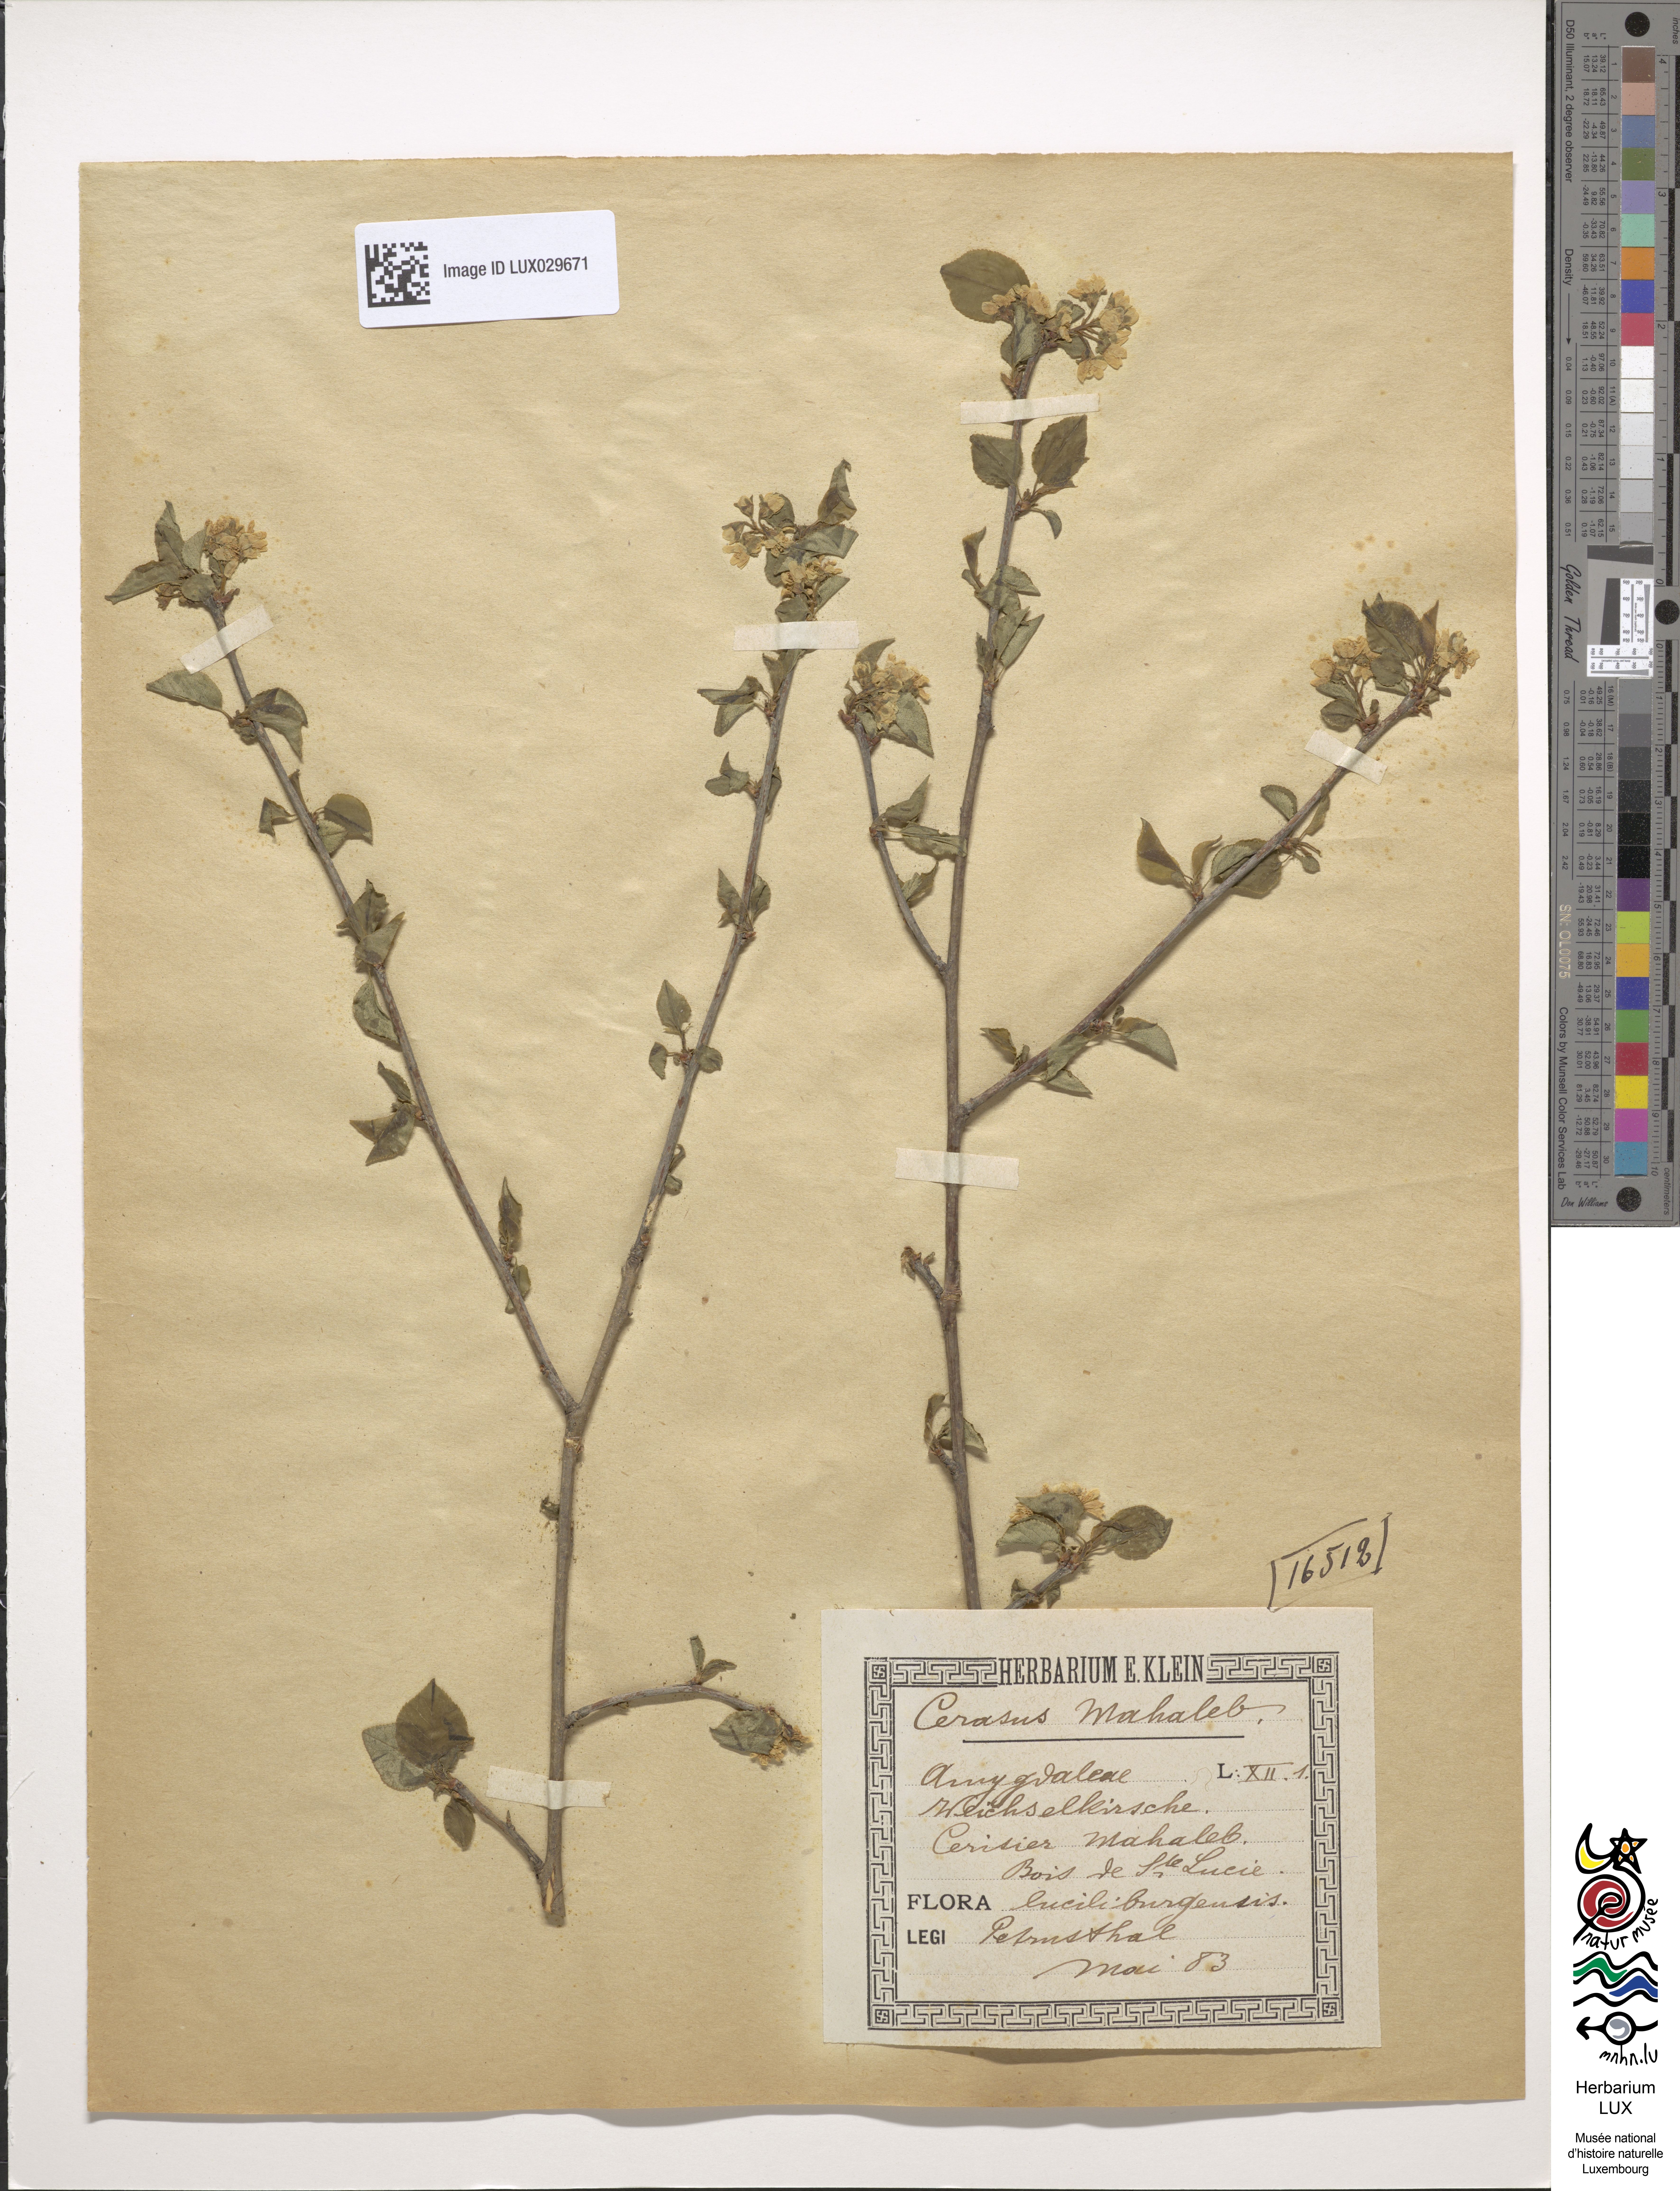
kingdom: Plantae
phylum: Tracheophyta
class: Magnoliopsida
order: Rosales
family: Rosaceae
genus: Prunus
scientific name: Prunus mahaleb
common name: Mahaleb cherry
